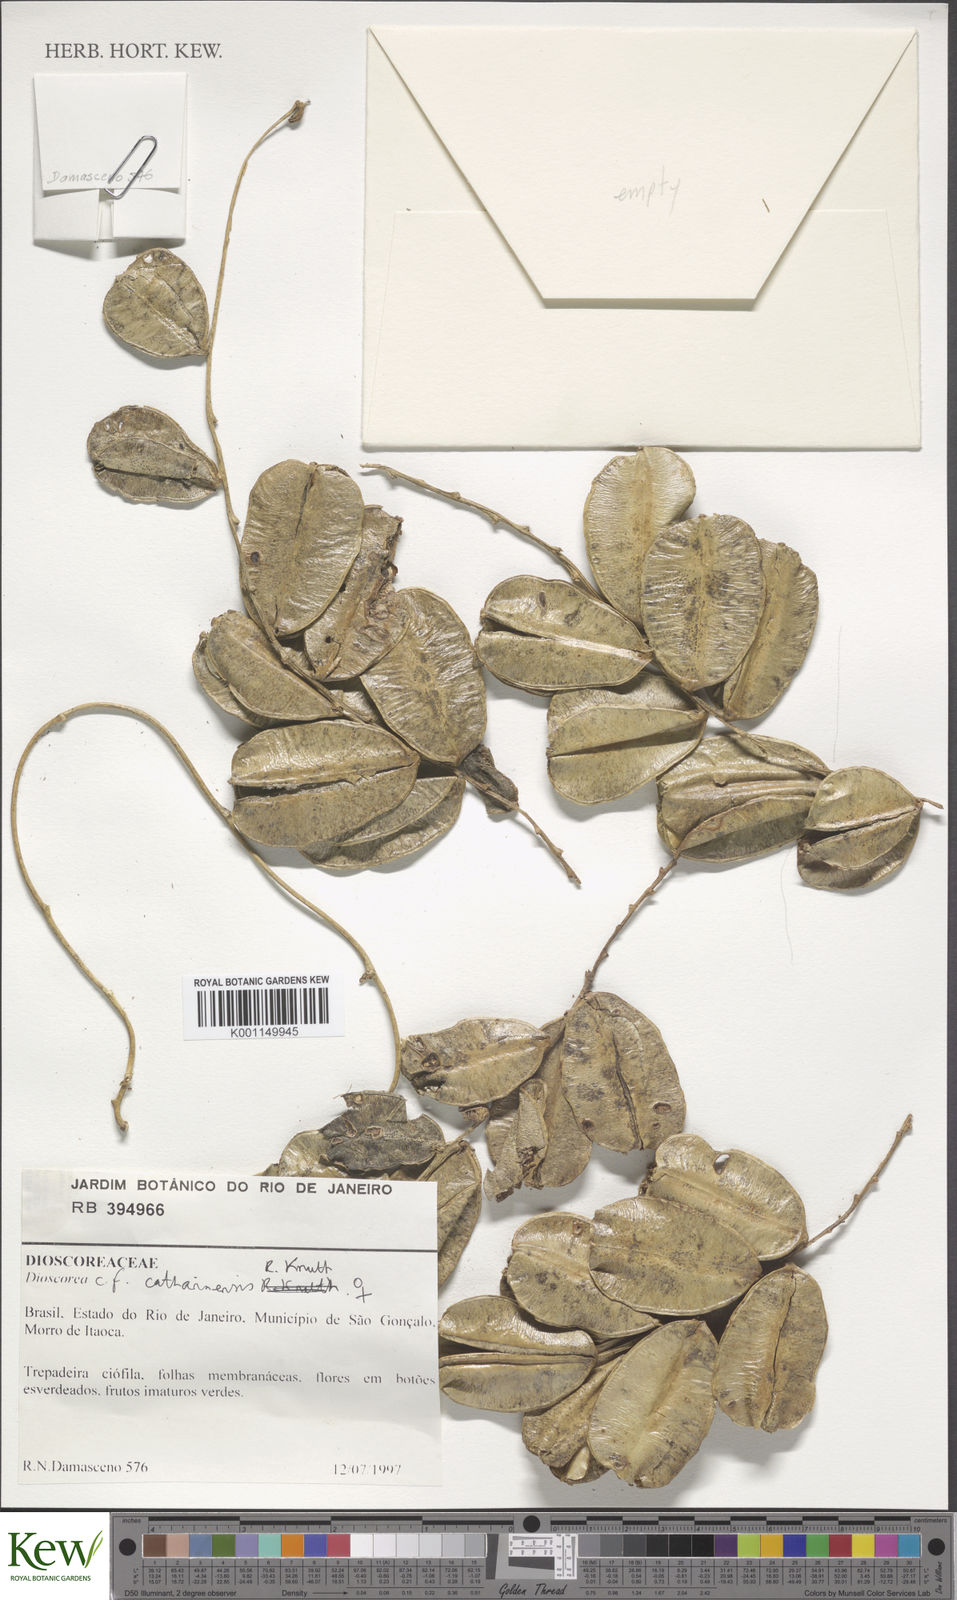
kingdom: Plantae
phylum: Tracheophyta
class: Liliopsida
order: Dioscoreales
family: Dioscoreaceae
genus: Dioscorea
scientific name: Dioscorea marginata
